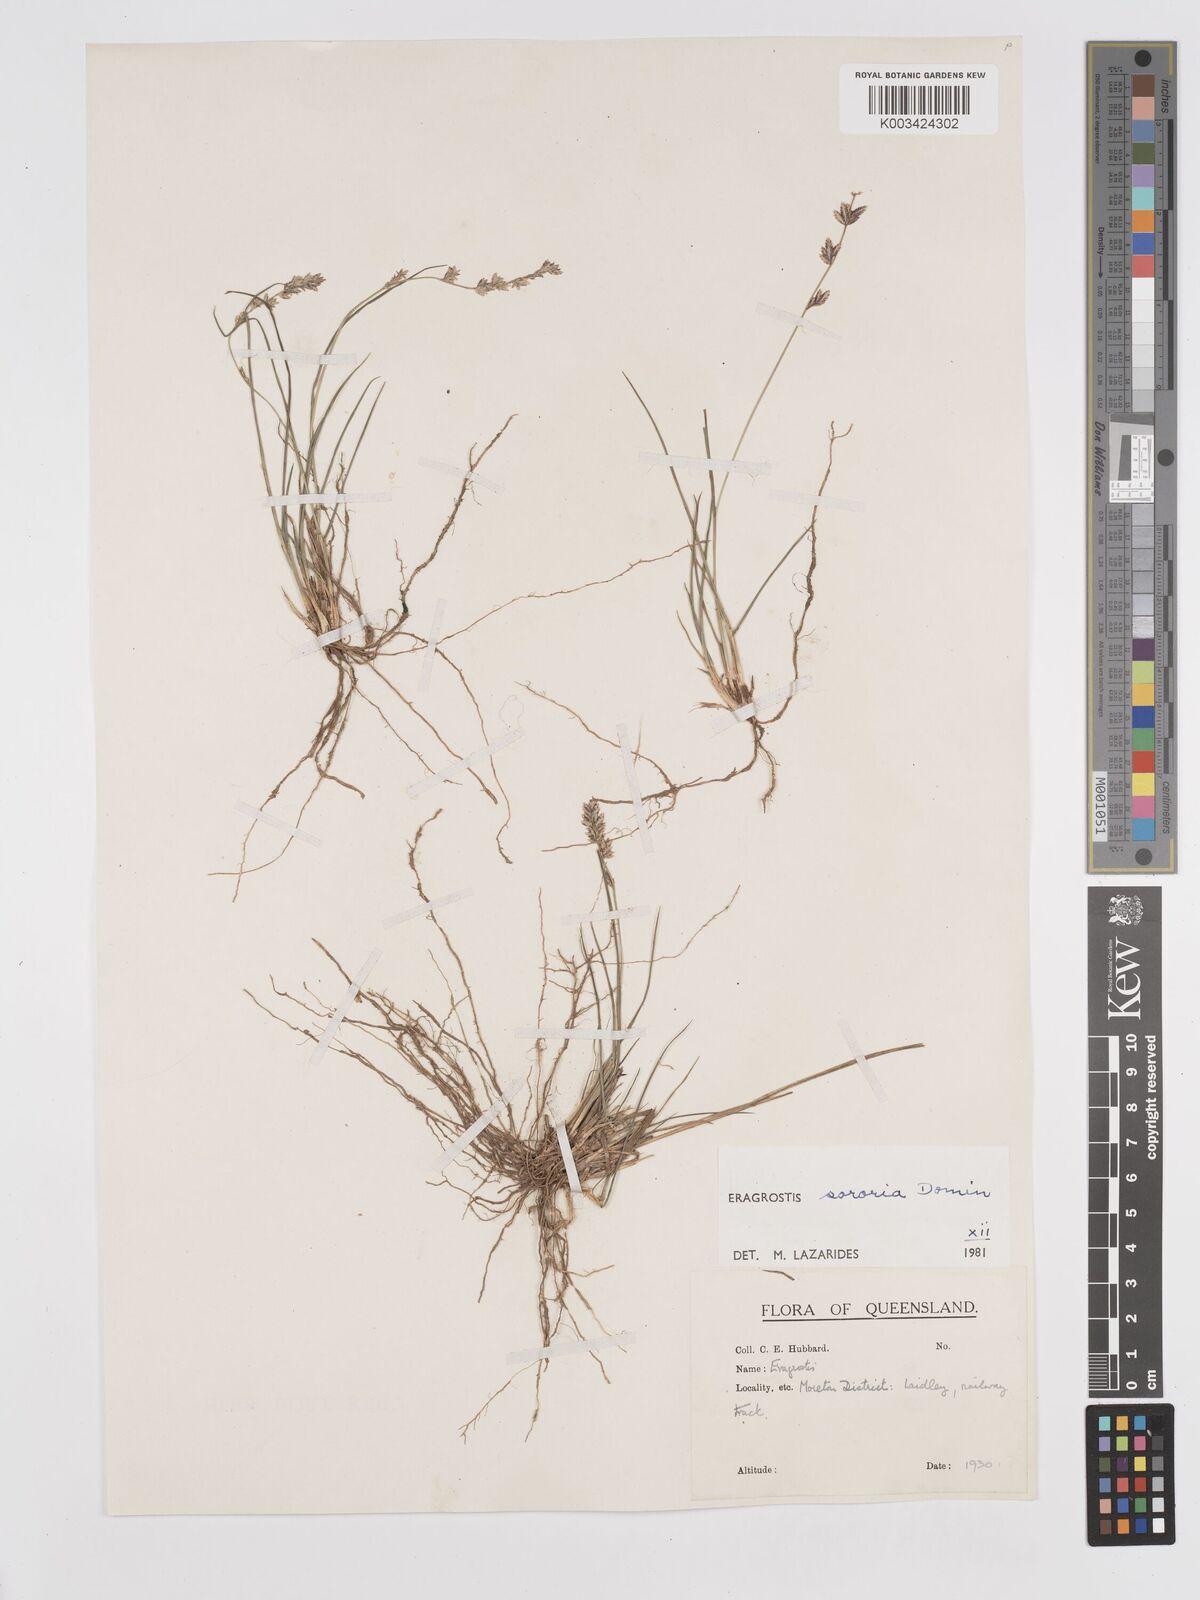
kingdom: Plantae
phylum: Tracheophyta
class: Liliopsida
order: Poales
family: Poaceae
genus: Eragrostis
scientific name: Eragrostis sororia
